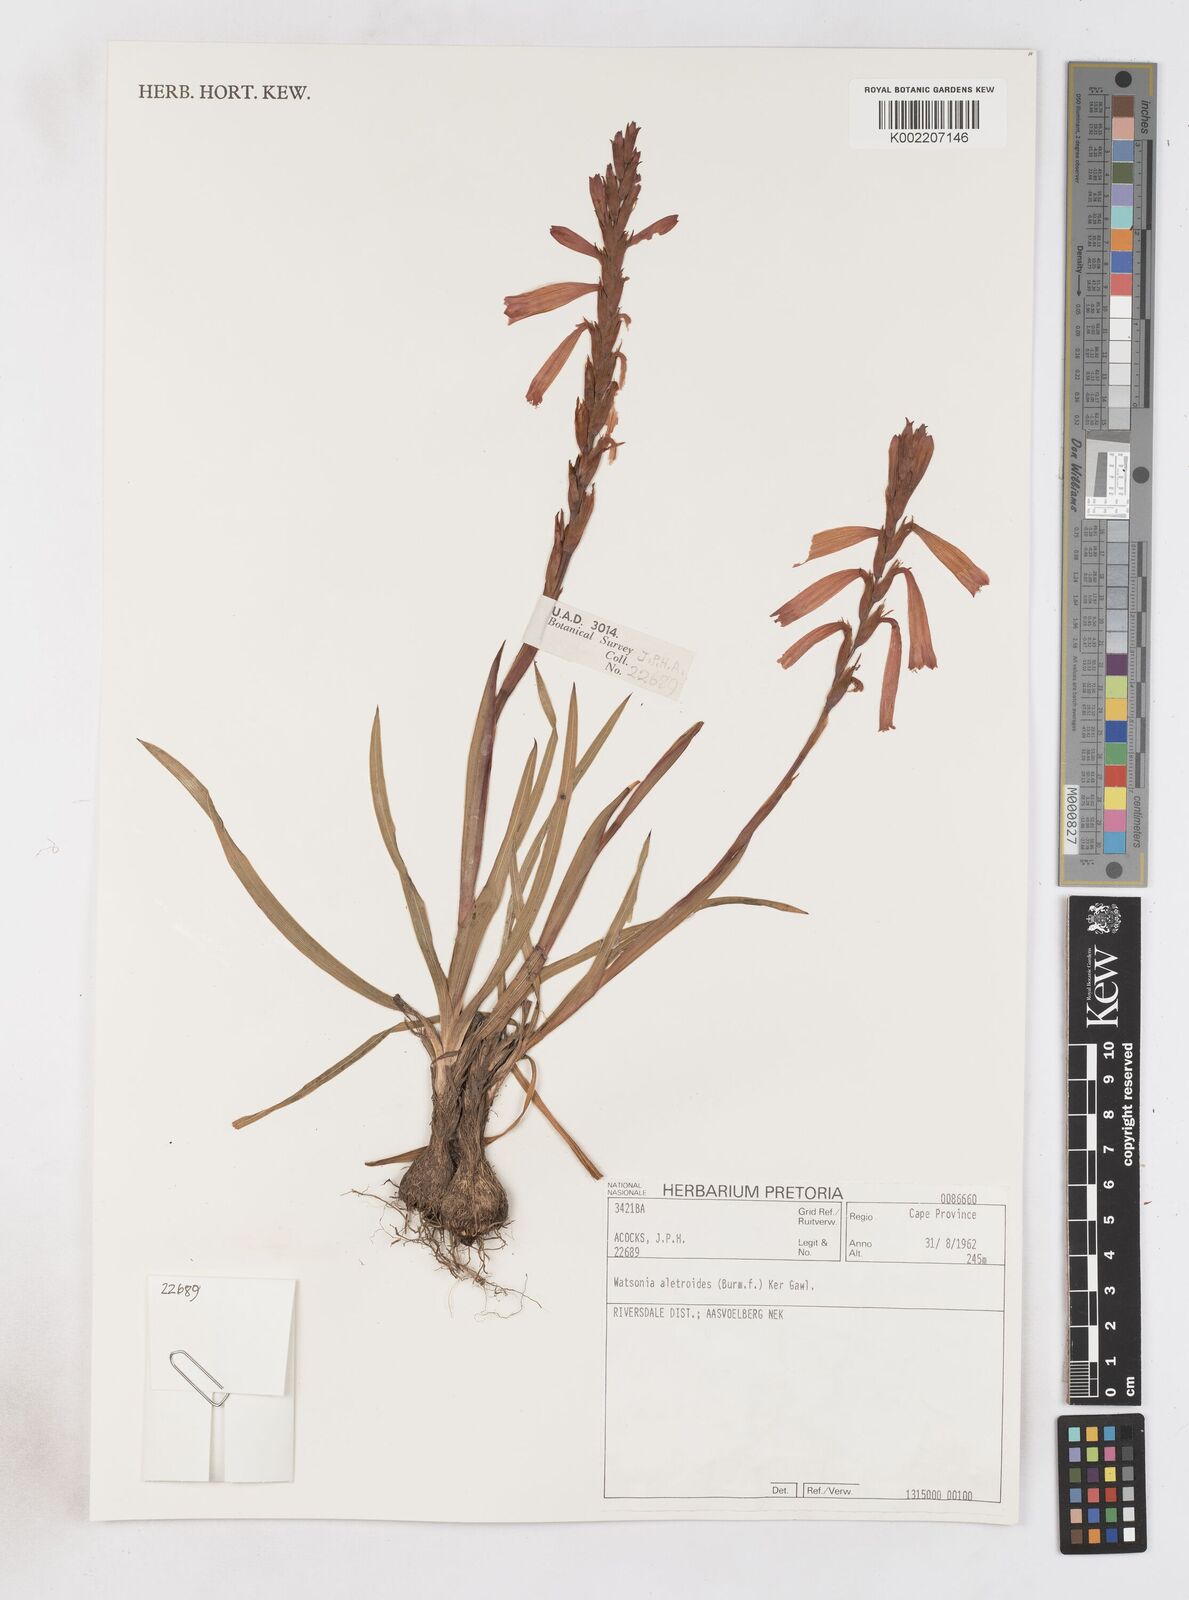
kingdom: Plantae
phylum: Tracheophyta
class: Liliopsida
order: Asparagales
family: Iridaceae
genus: Watsonia
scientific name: Watsonia aletroides
